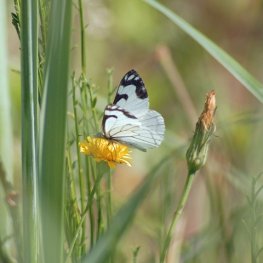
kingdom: Animalia
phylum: Arthropoda
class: Insecta
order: Lepidoptera
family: Pieridae
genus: Neophasia
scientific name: Neophasia menapia
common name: Pine White
